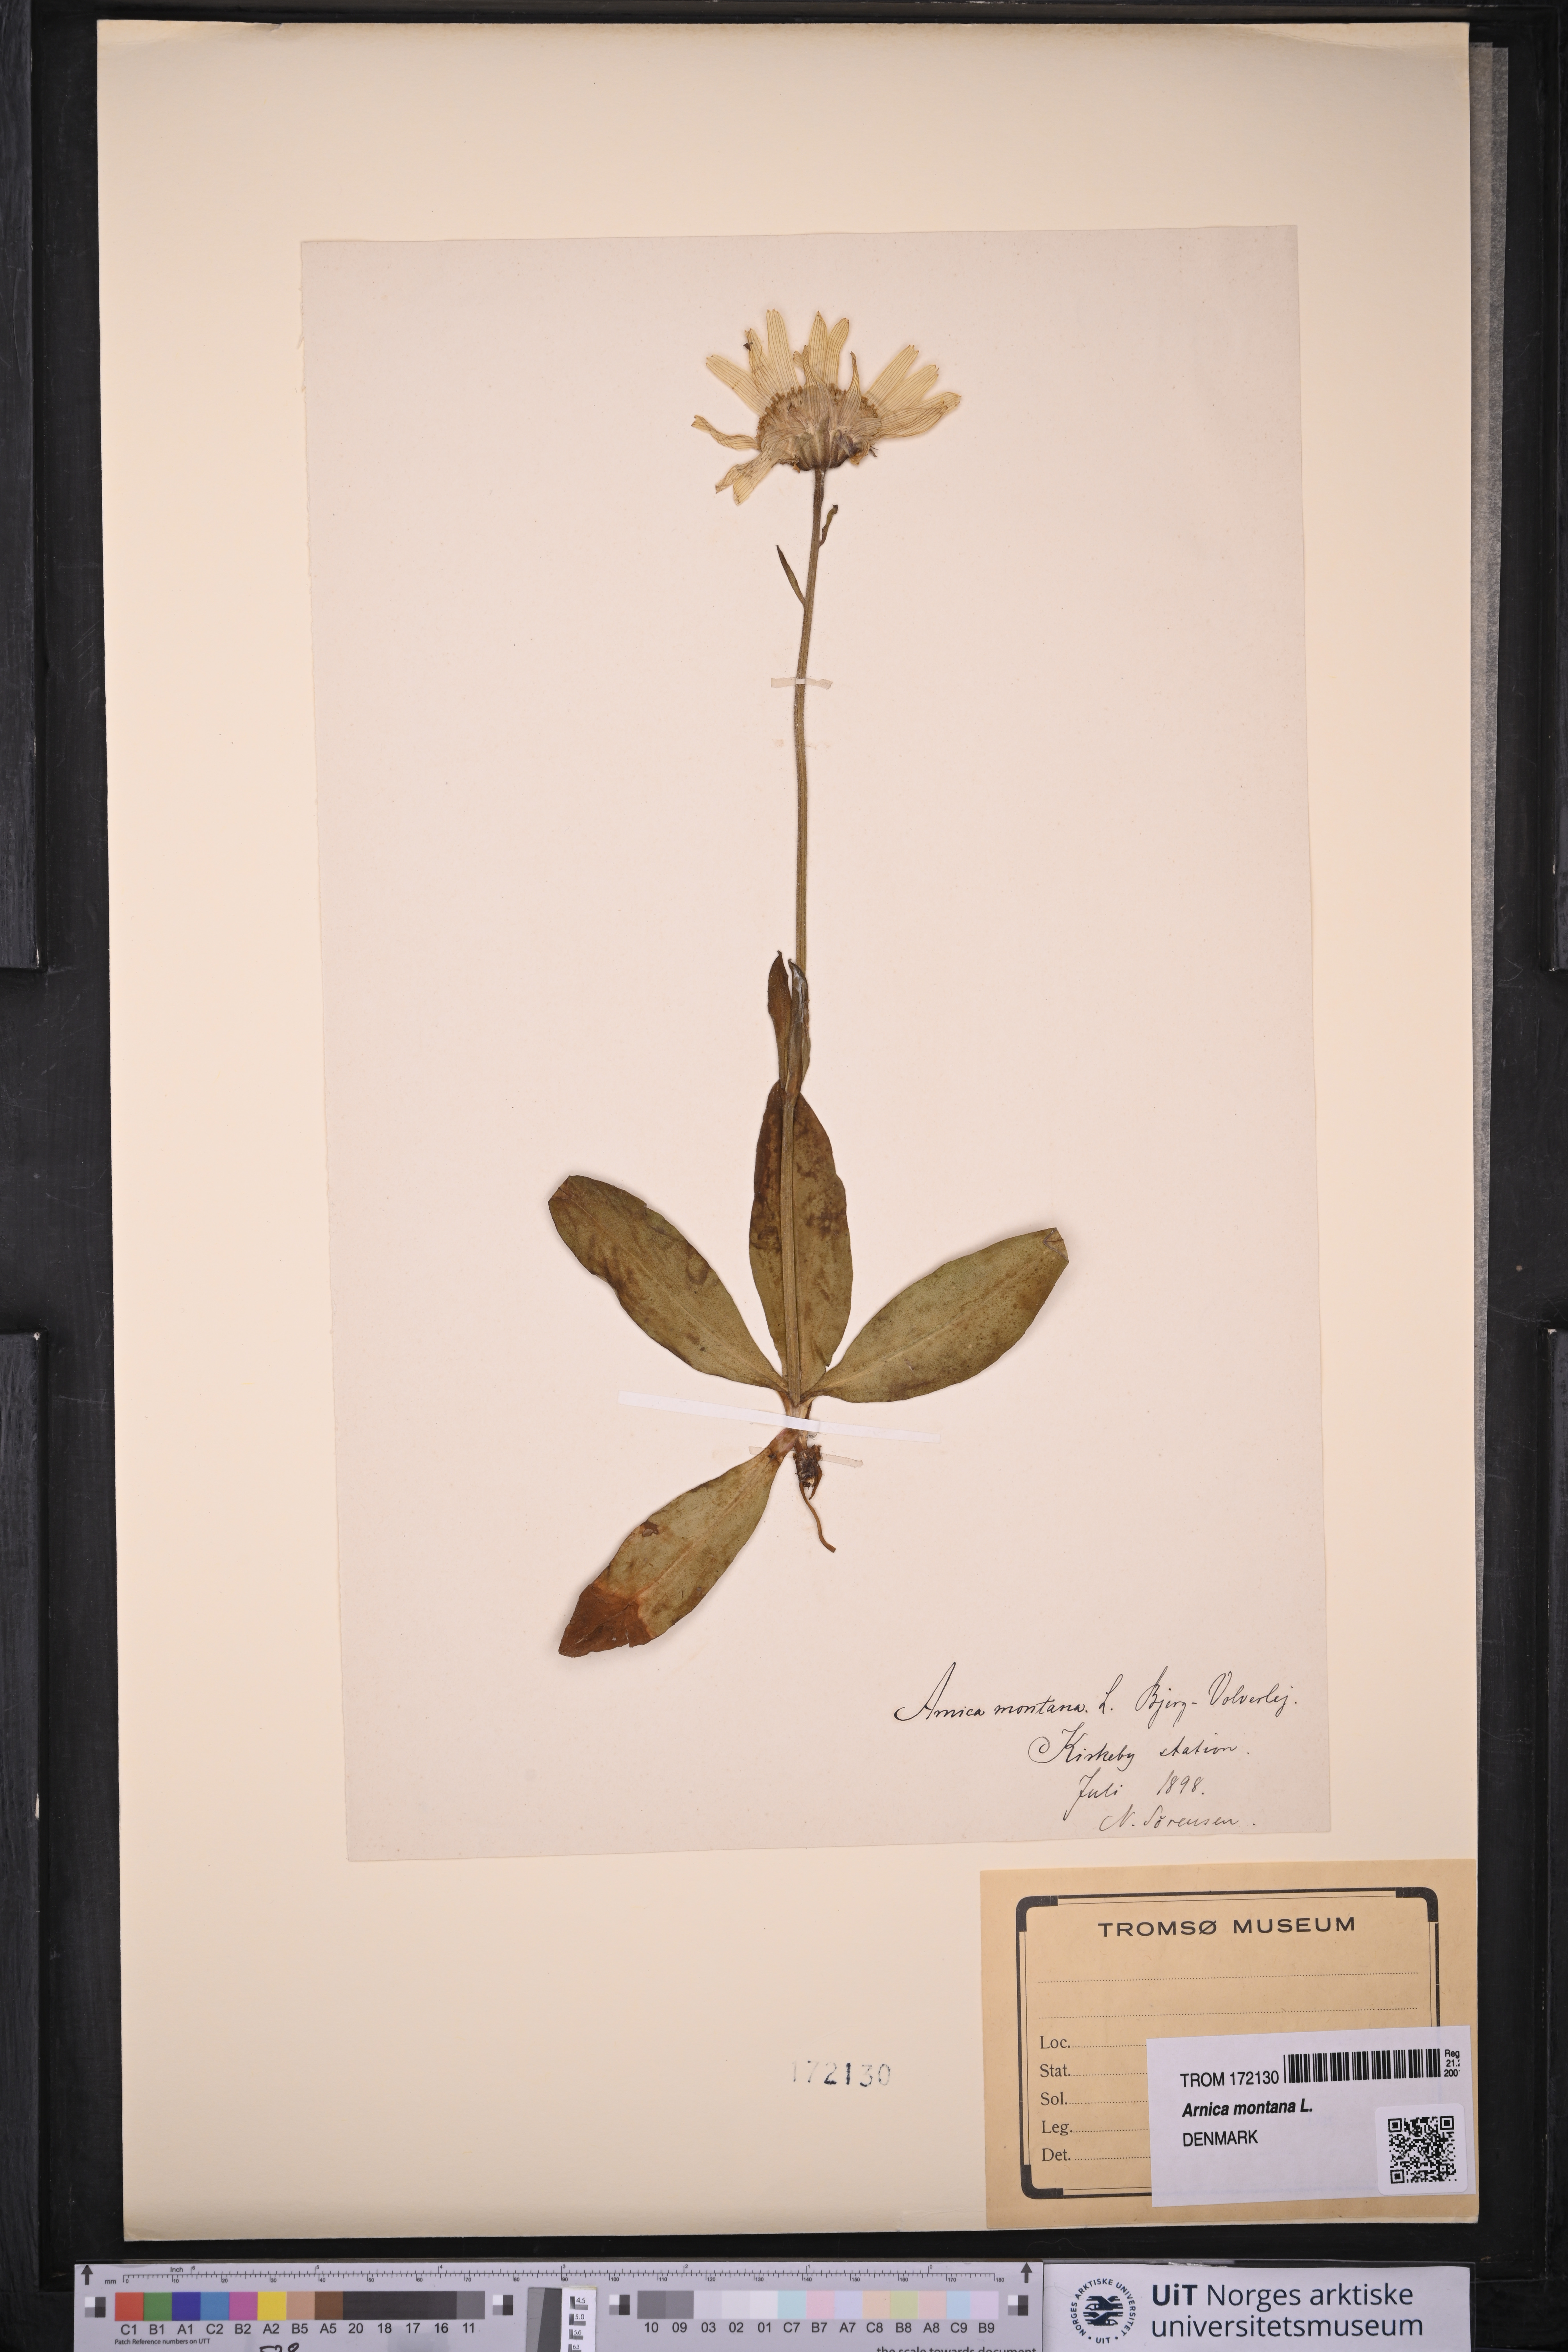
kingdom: Plantae
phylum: Tracheophyta
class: Magnoliopsida
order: Asterales
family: Asteraceae
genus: Arnica
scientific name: Arnica montana
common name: Leopard's bane
